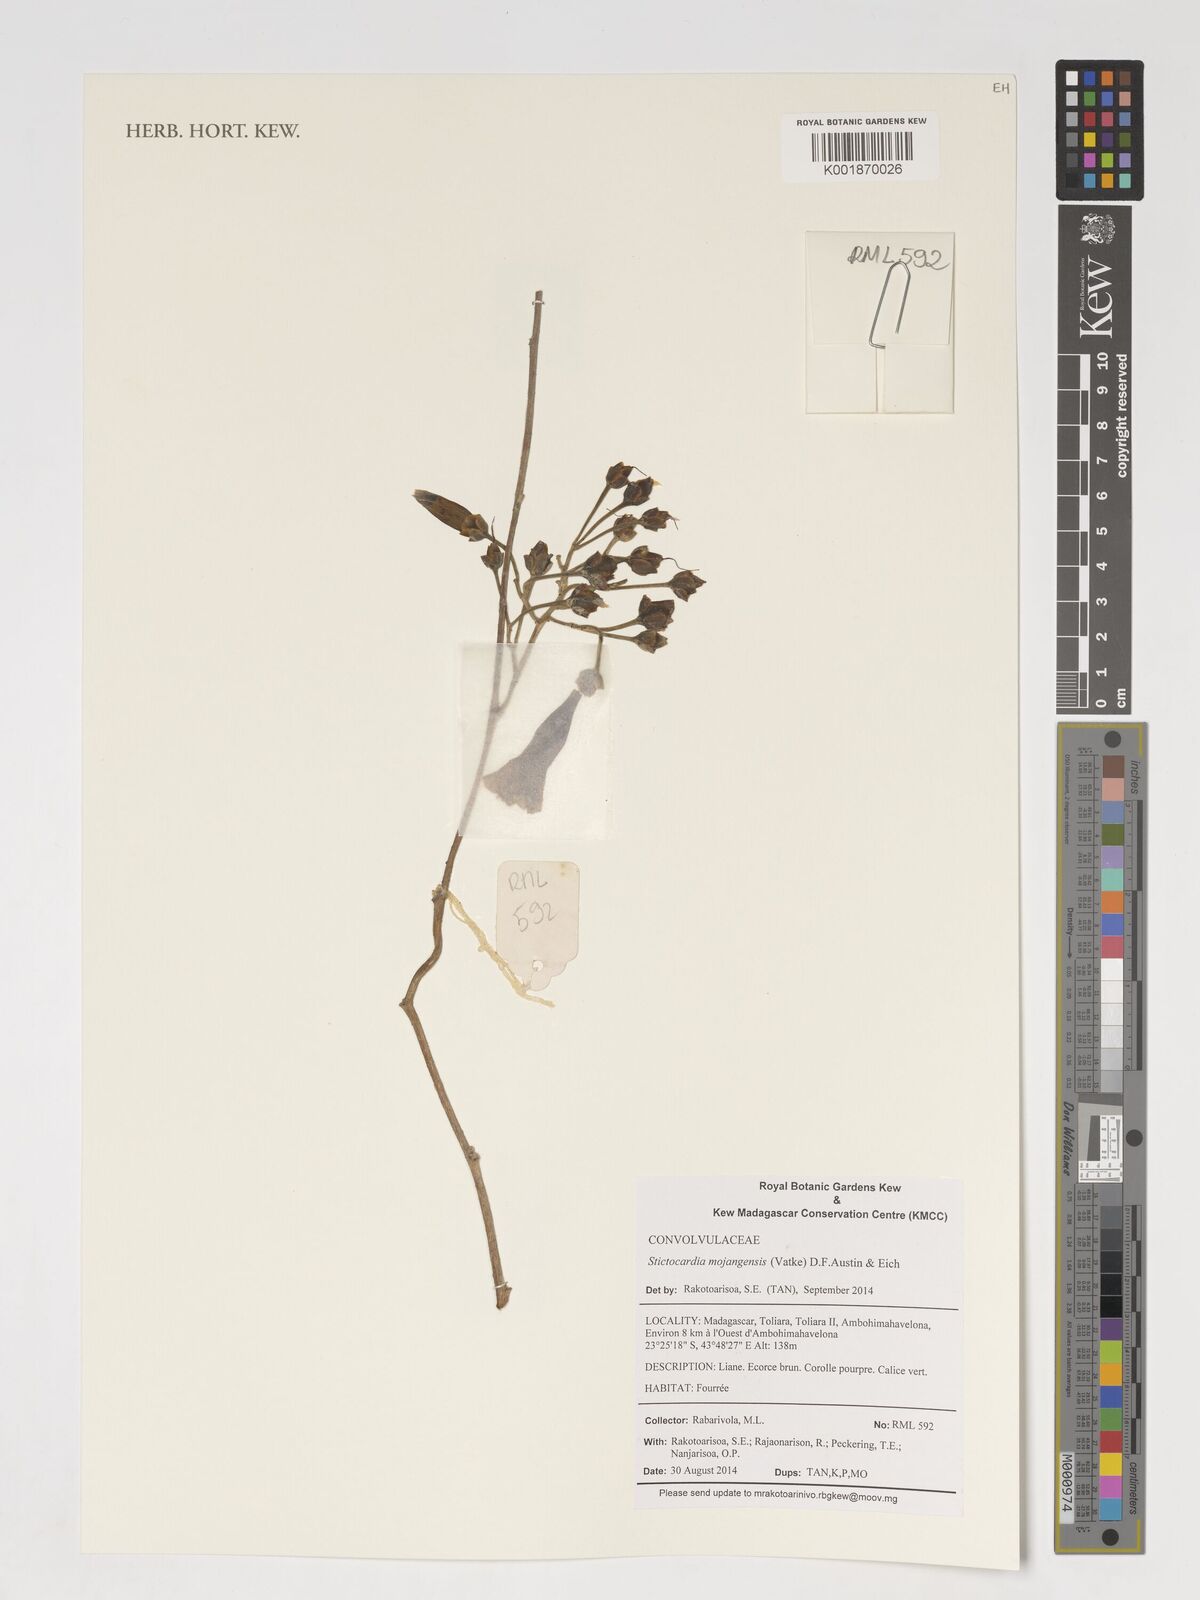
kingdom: Plantae
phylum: Tracheophyta
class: Magnoliopsida
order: Solanales
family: Convolvulaceae
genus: Stictocardia
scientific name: Stictocardia mojangensis
